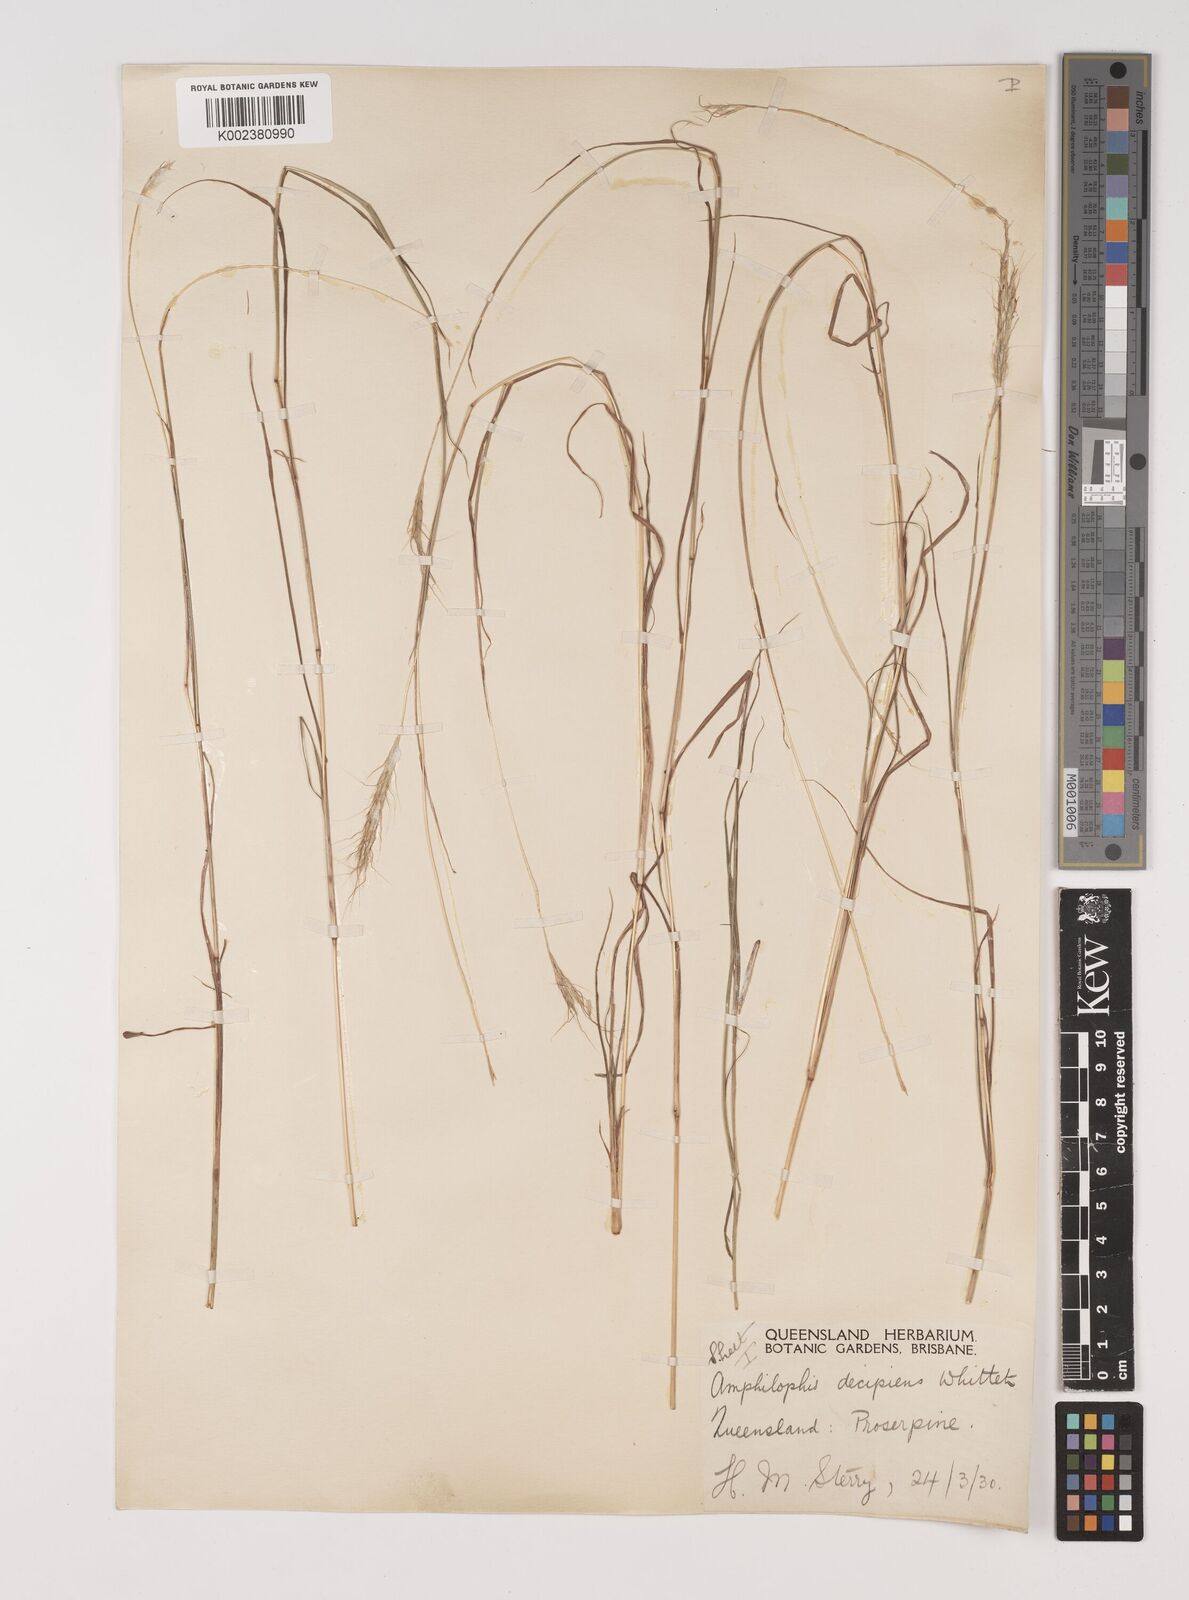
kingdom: Plantae
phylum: Tracheophyta
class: Liliopsida
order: Poales
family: Poaceae
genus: Bothriochloa
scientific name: Bothriochloa decipiens
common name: Pitted-bluegrass
